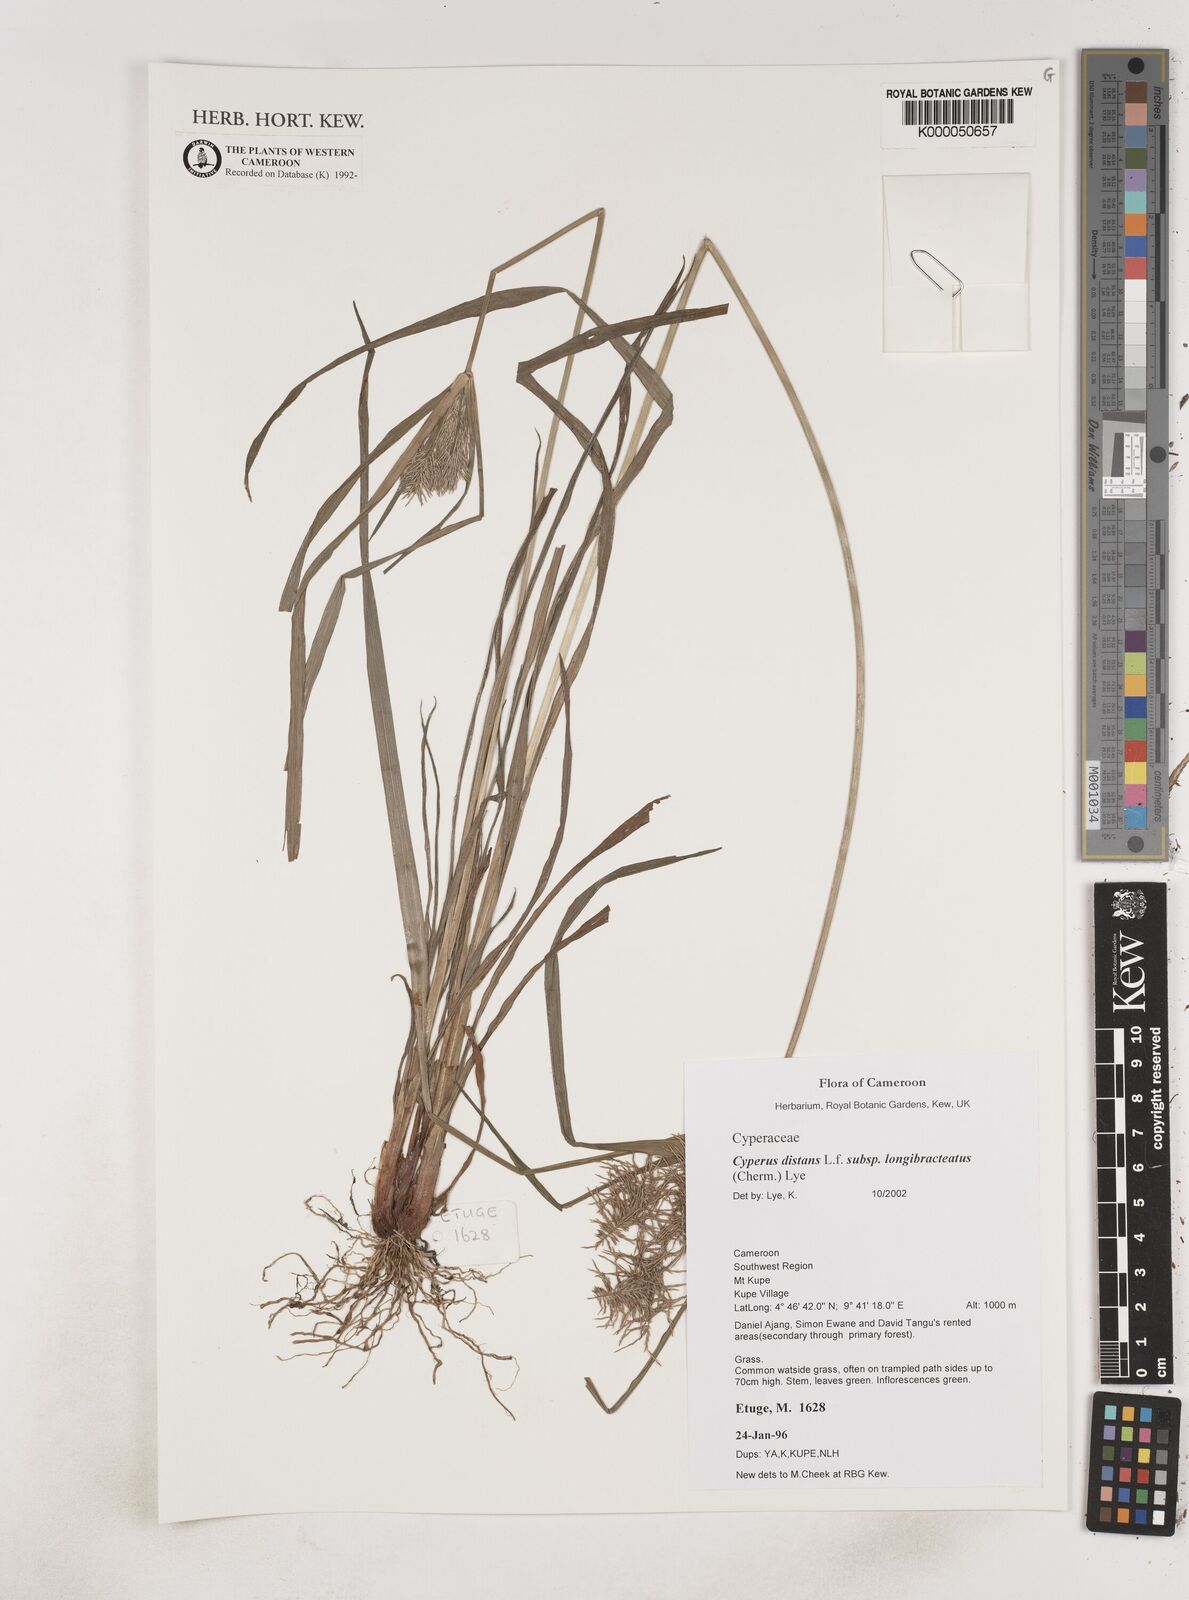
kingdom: Plantae
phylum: Tracheophyta
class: Liliopsida
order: Poales
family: Cyperaceae
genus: Cyperus
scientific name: Cyperus distans
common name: Slender cyperus
